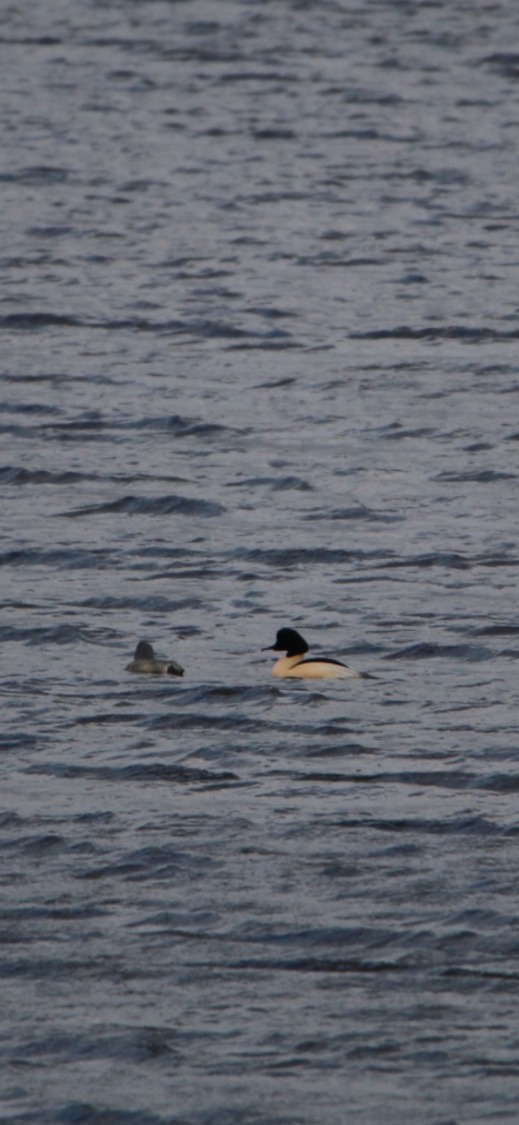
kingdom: Animalia
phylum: Chordata
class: Aves
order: Anseriformes
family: Anatidae
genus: Mergus
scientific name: Mergus merganser
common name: Stor skallesluger
